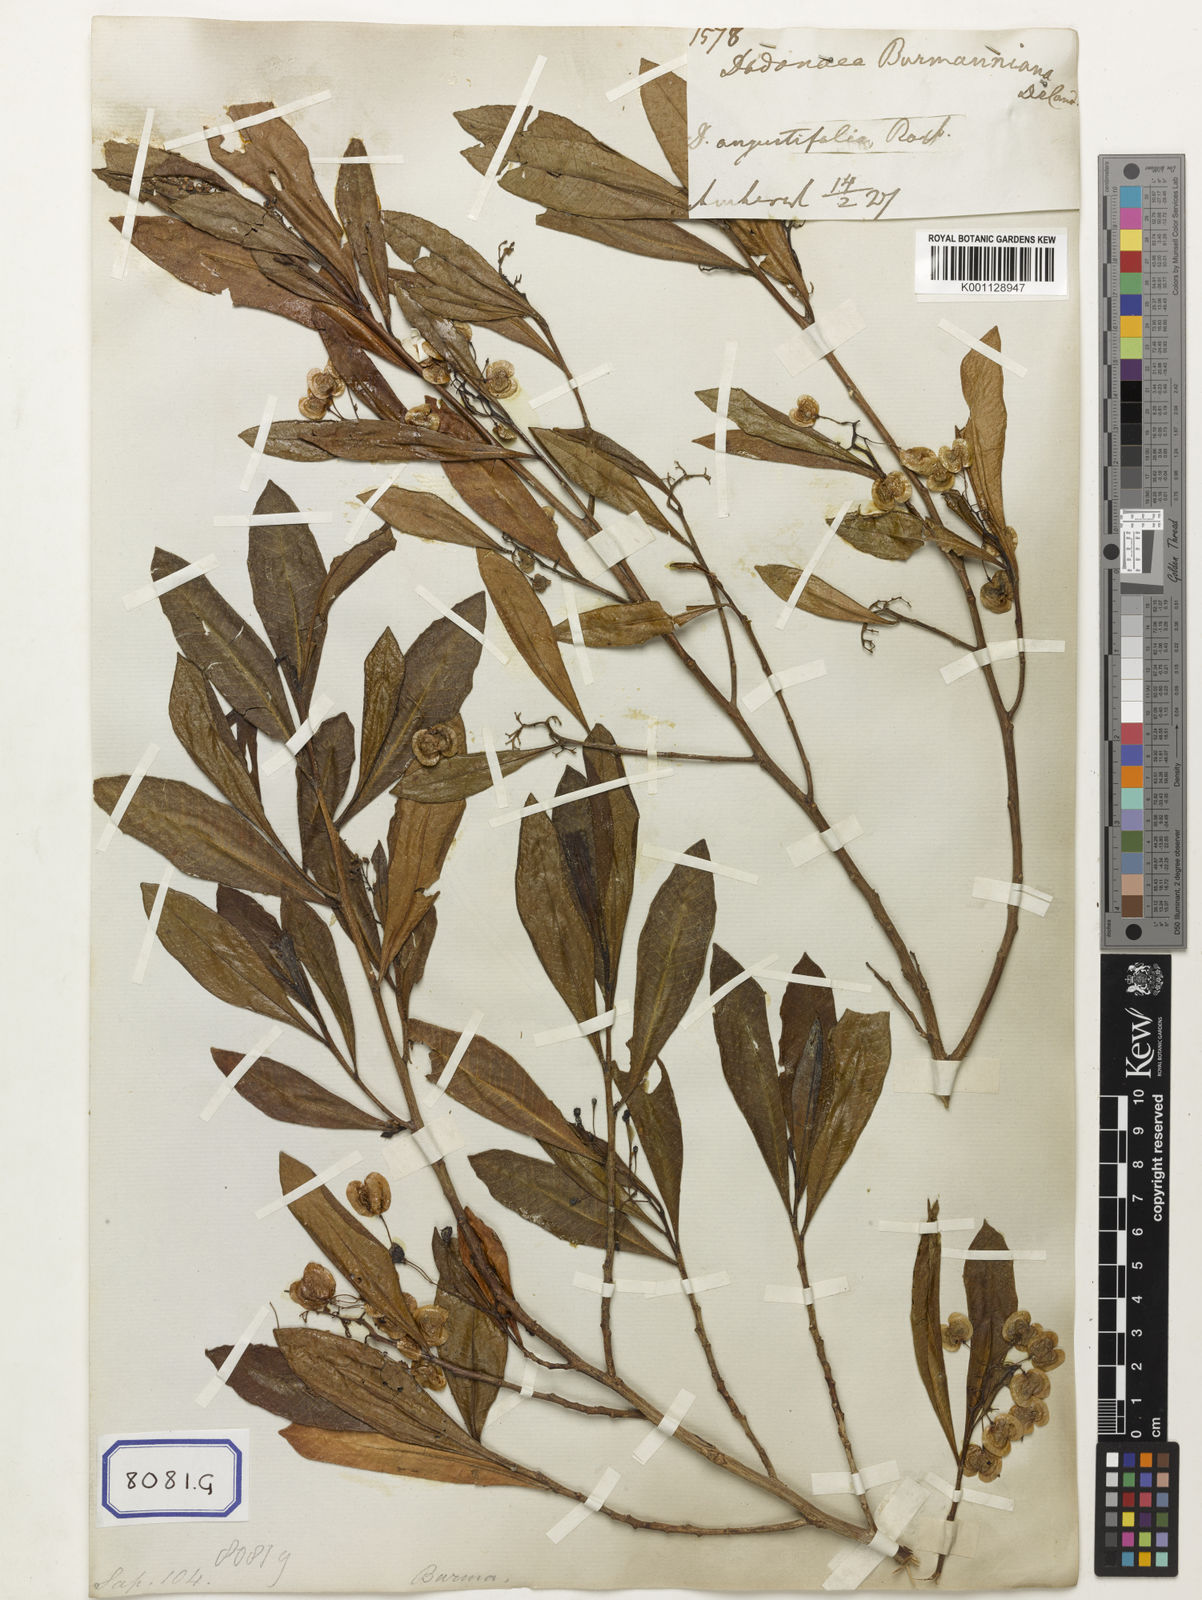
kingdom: Plantae
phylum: Tracheophyta
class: Magnoliopsida
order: Sapindales
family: Sapindaceae
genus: Dodonaea
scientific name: Dodonaea
